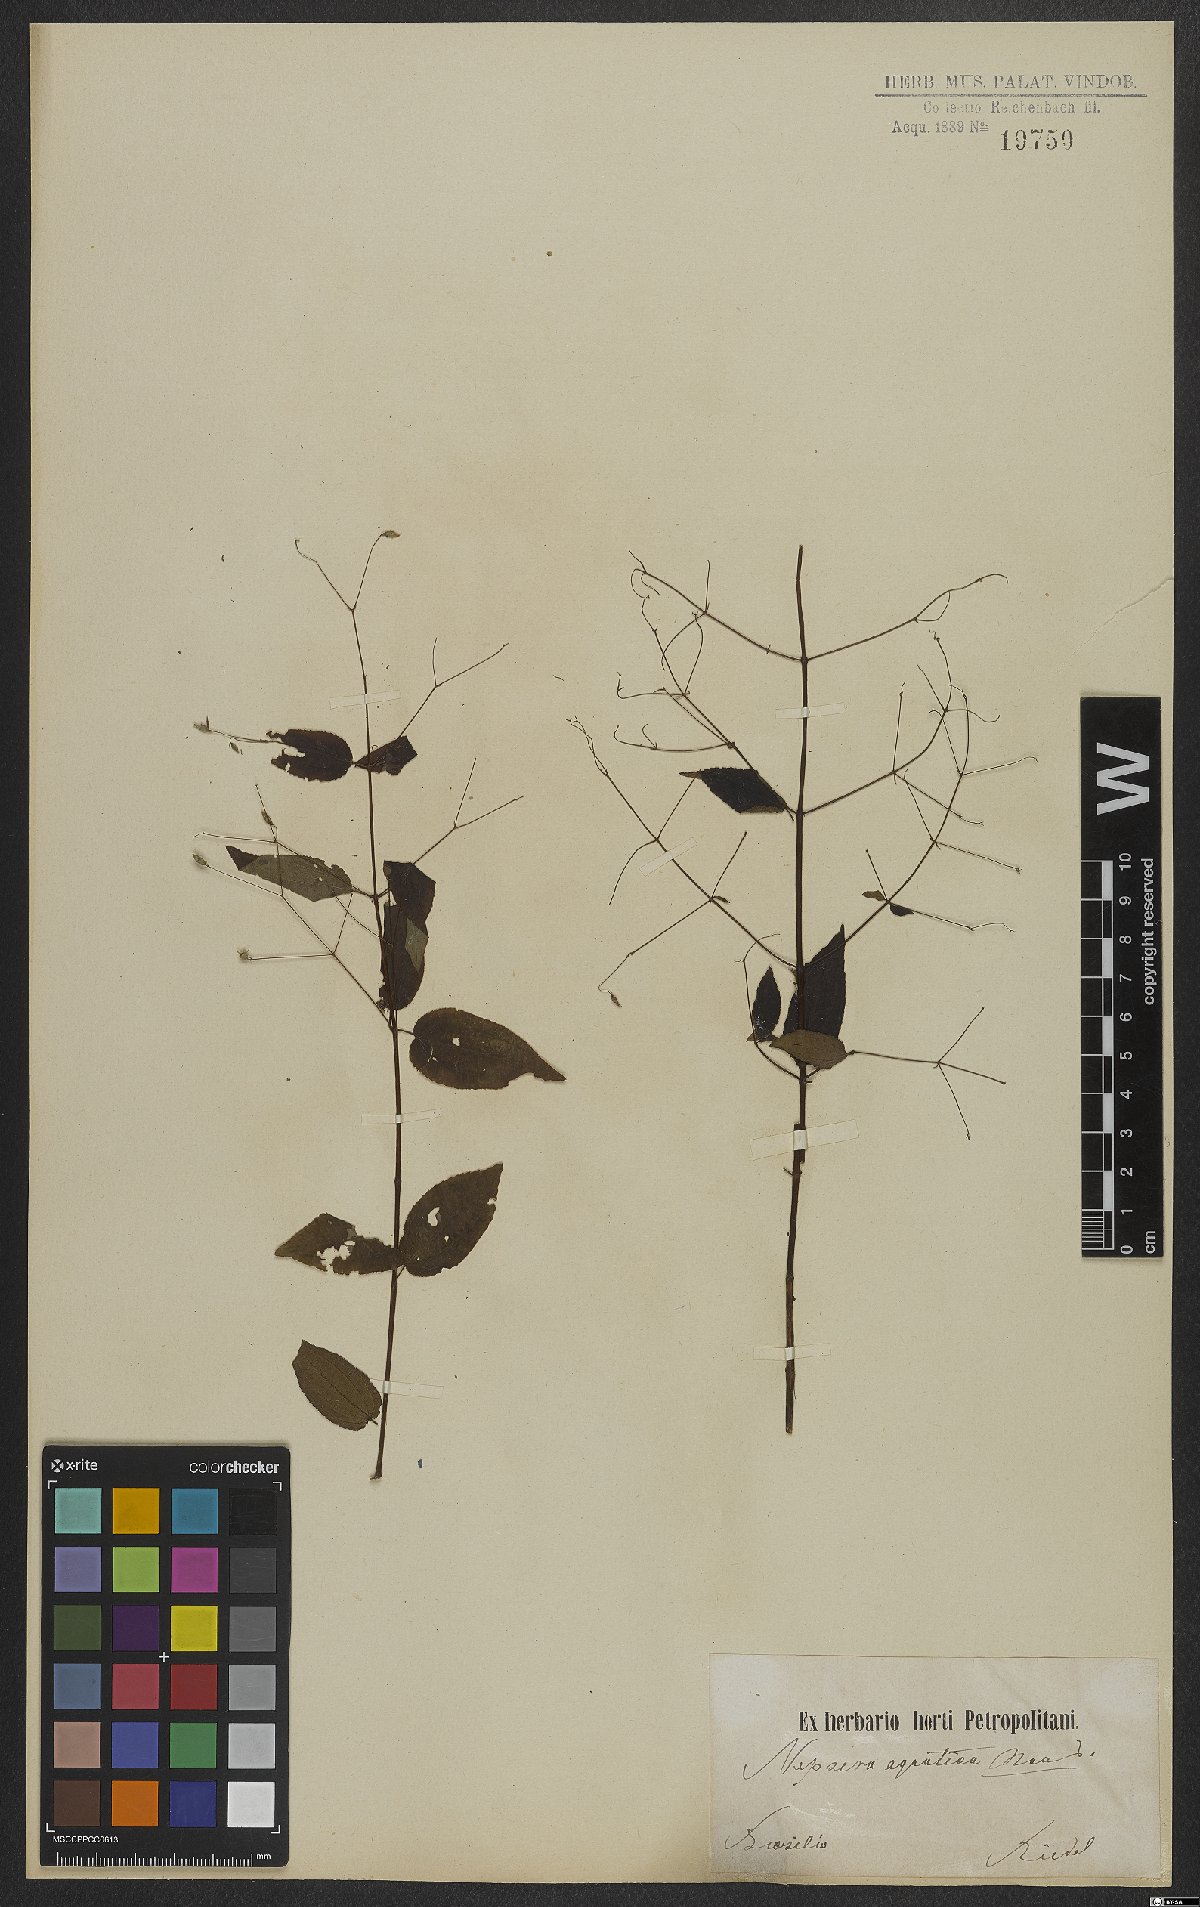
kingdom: Plantae
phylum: Tracheophyta
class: Magnoliopsida
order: Myrtales
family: Melastomataceae
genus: Nepsera
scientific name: Nepsera aquatica
